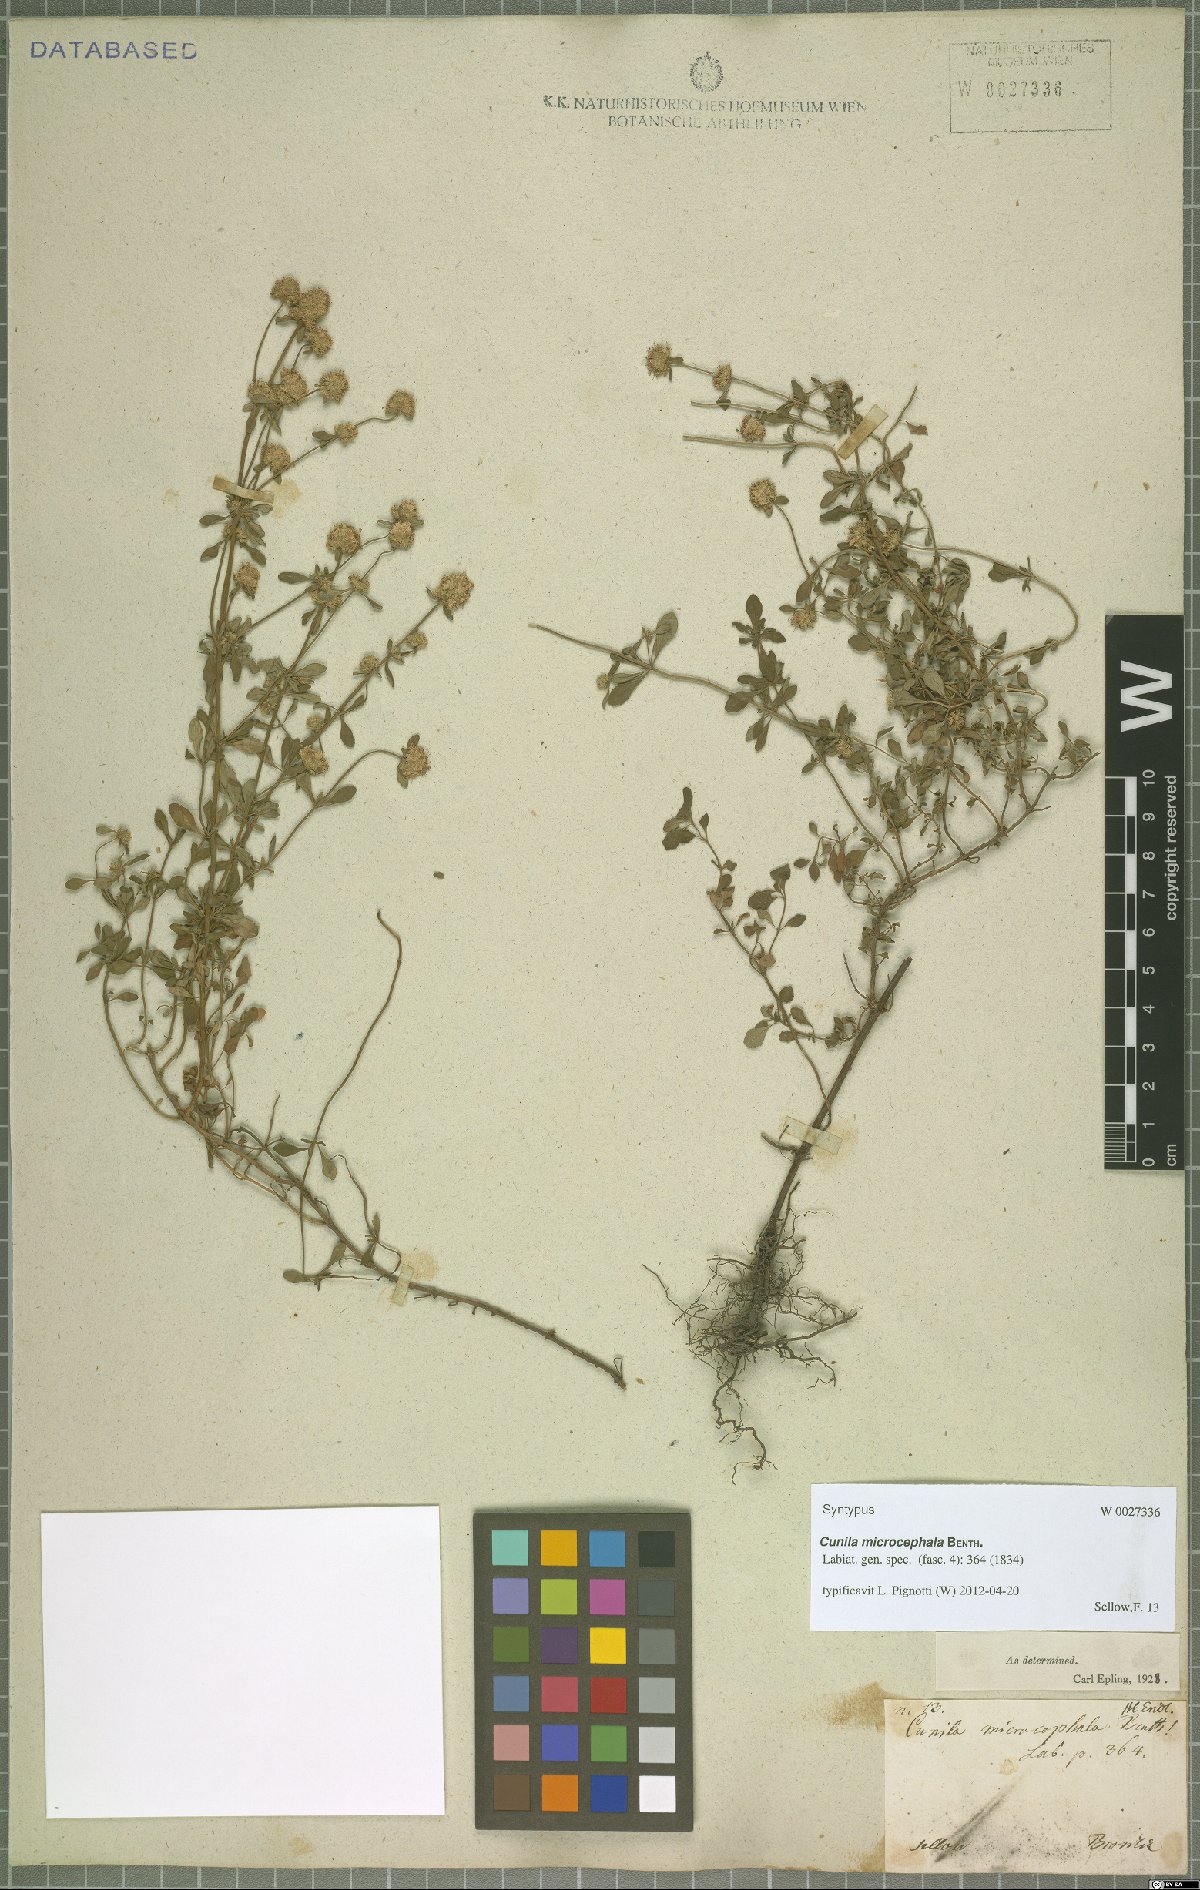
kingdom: Plantae
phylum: Tracheophyta
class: Magnoliopsida
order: Lamiales
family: Lamiaceae
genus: Cunila
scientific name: Cunila microcephala
